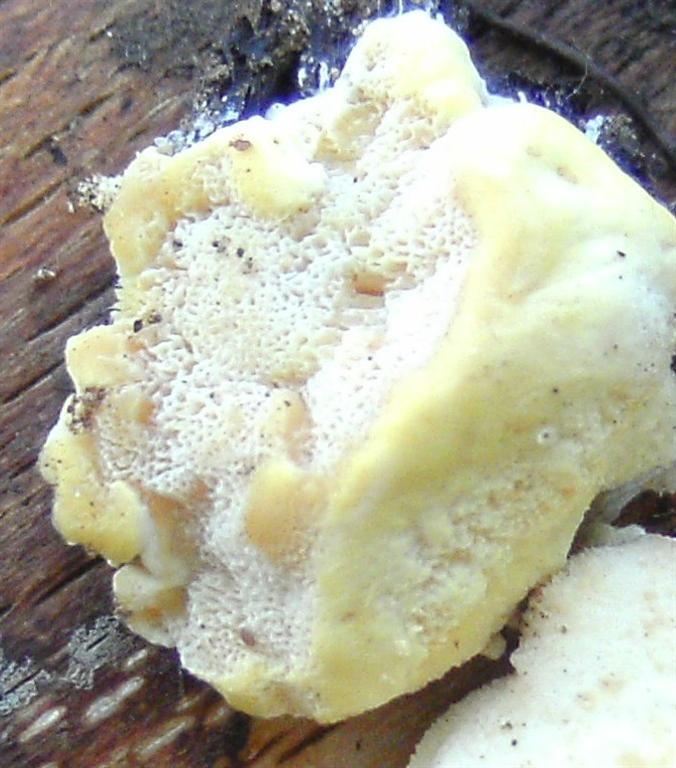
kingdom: Fungi
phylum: Basidiomycota
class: Agaricomycetes
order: Polyporales
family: Steccherinaceae
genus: Antrodiella
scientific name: Antrodiella serpula
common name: gulrandet elastikporesvamp
